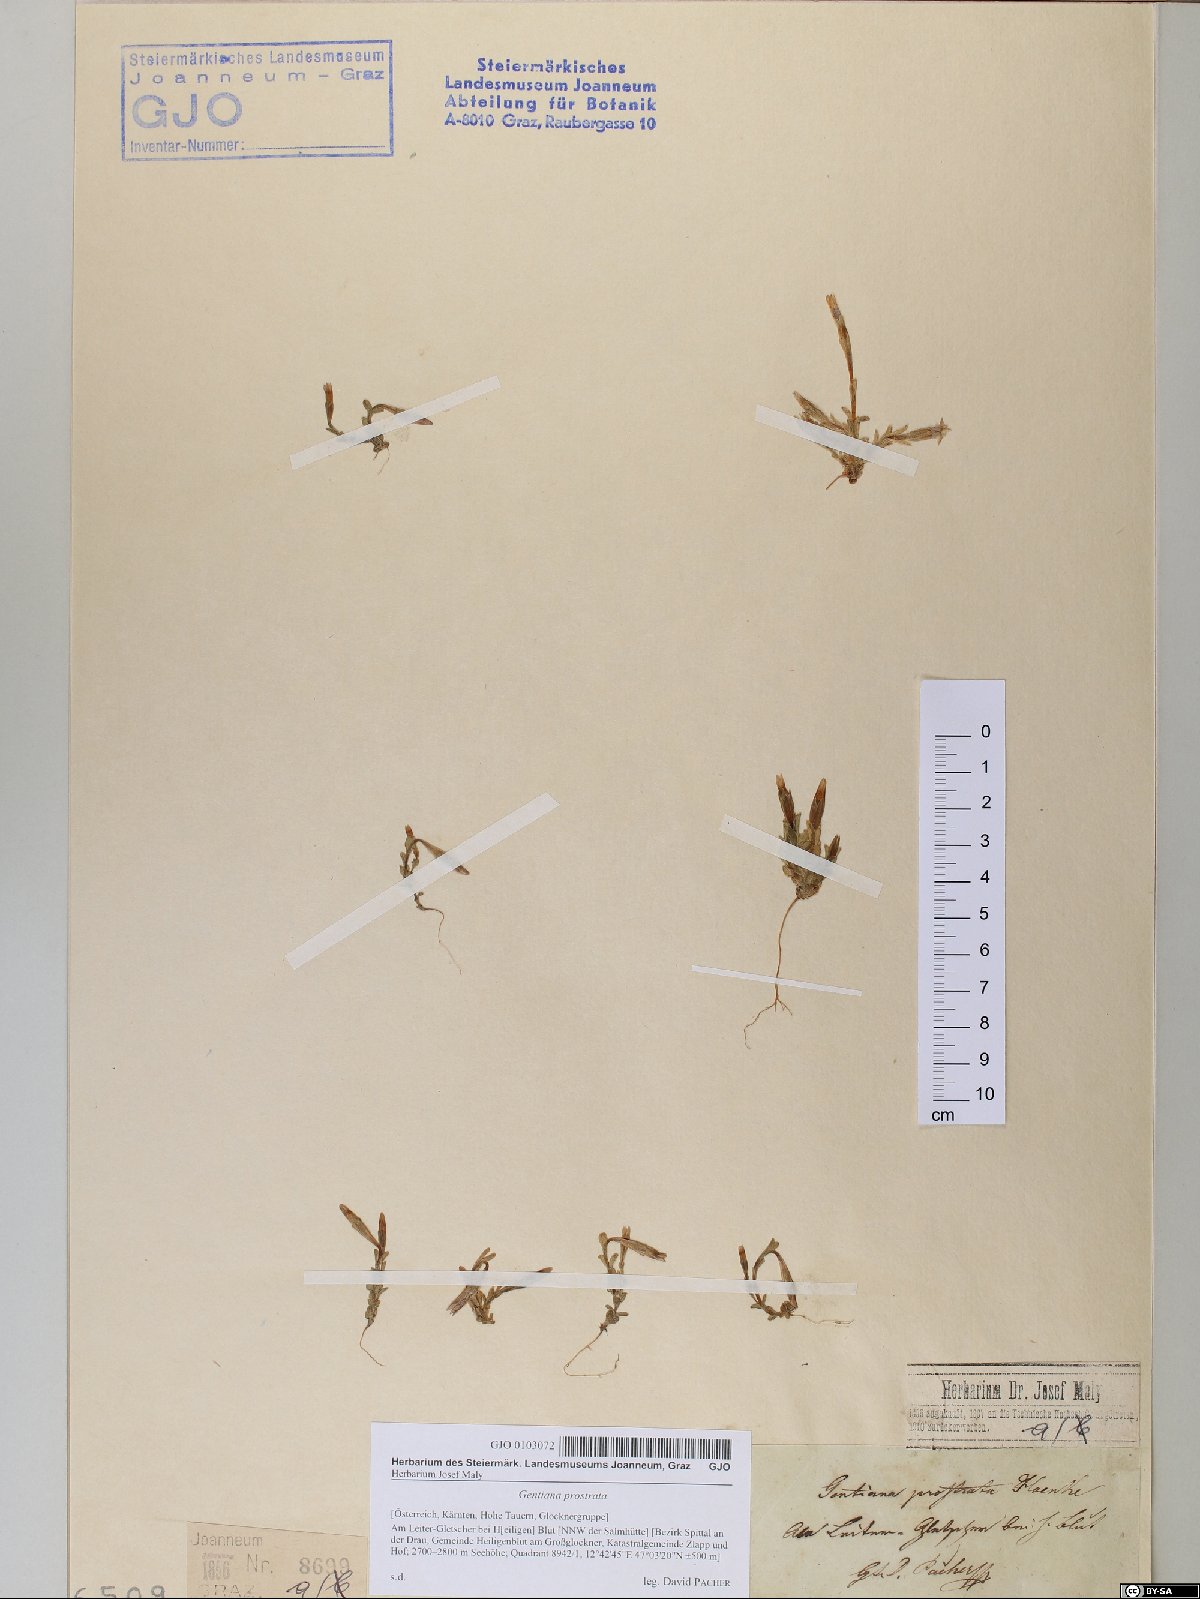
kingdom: Plantae
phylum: Tracheophyta
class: Magnoliopsida
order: Gentianales
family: Gentianaceae
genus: Gentiana
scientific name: Gentiana prostrata
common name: Moss gentian
